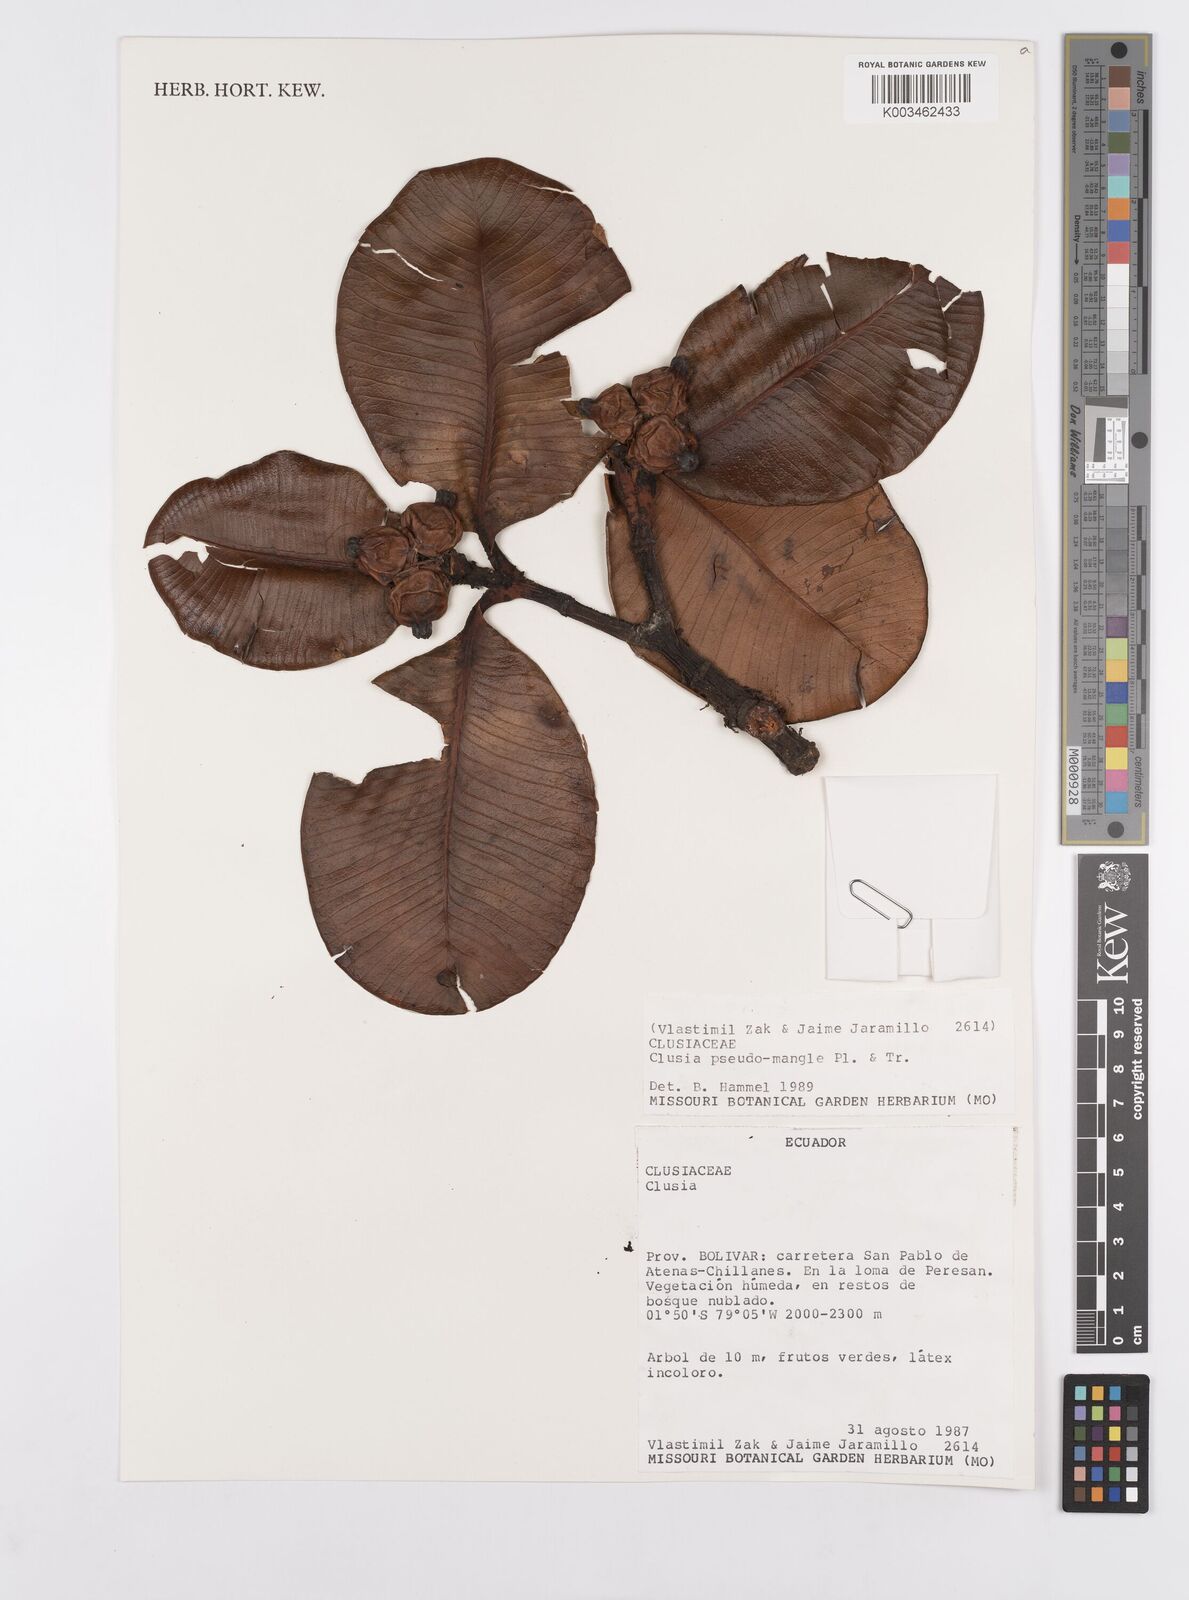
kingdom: Plantae
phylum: Tracheophyta
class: Magnoliopsida
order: Malpighiales
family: Clusiaceae
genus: Clusia
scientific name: Clusia pseudomangle
